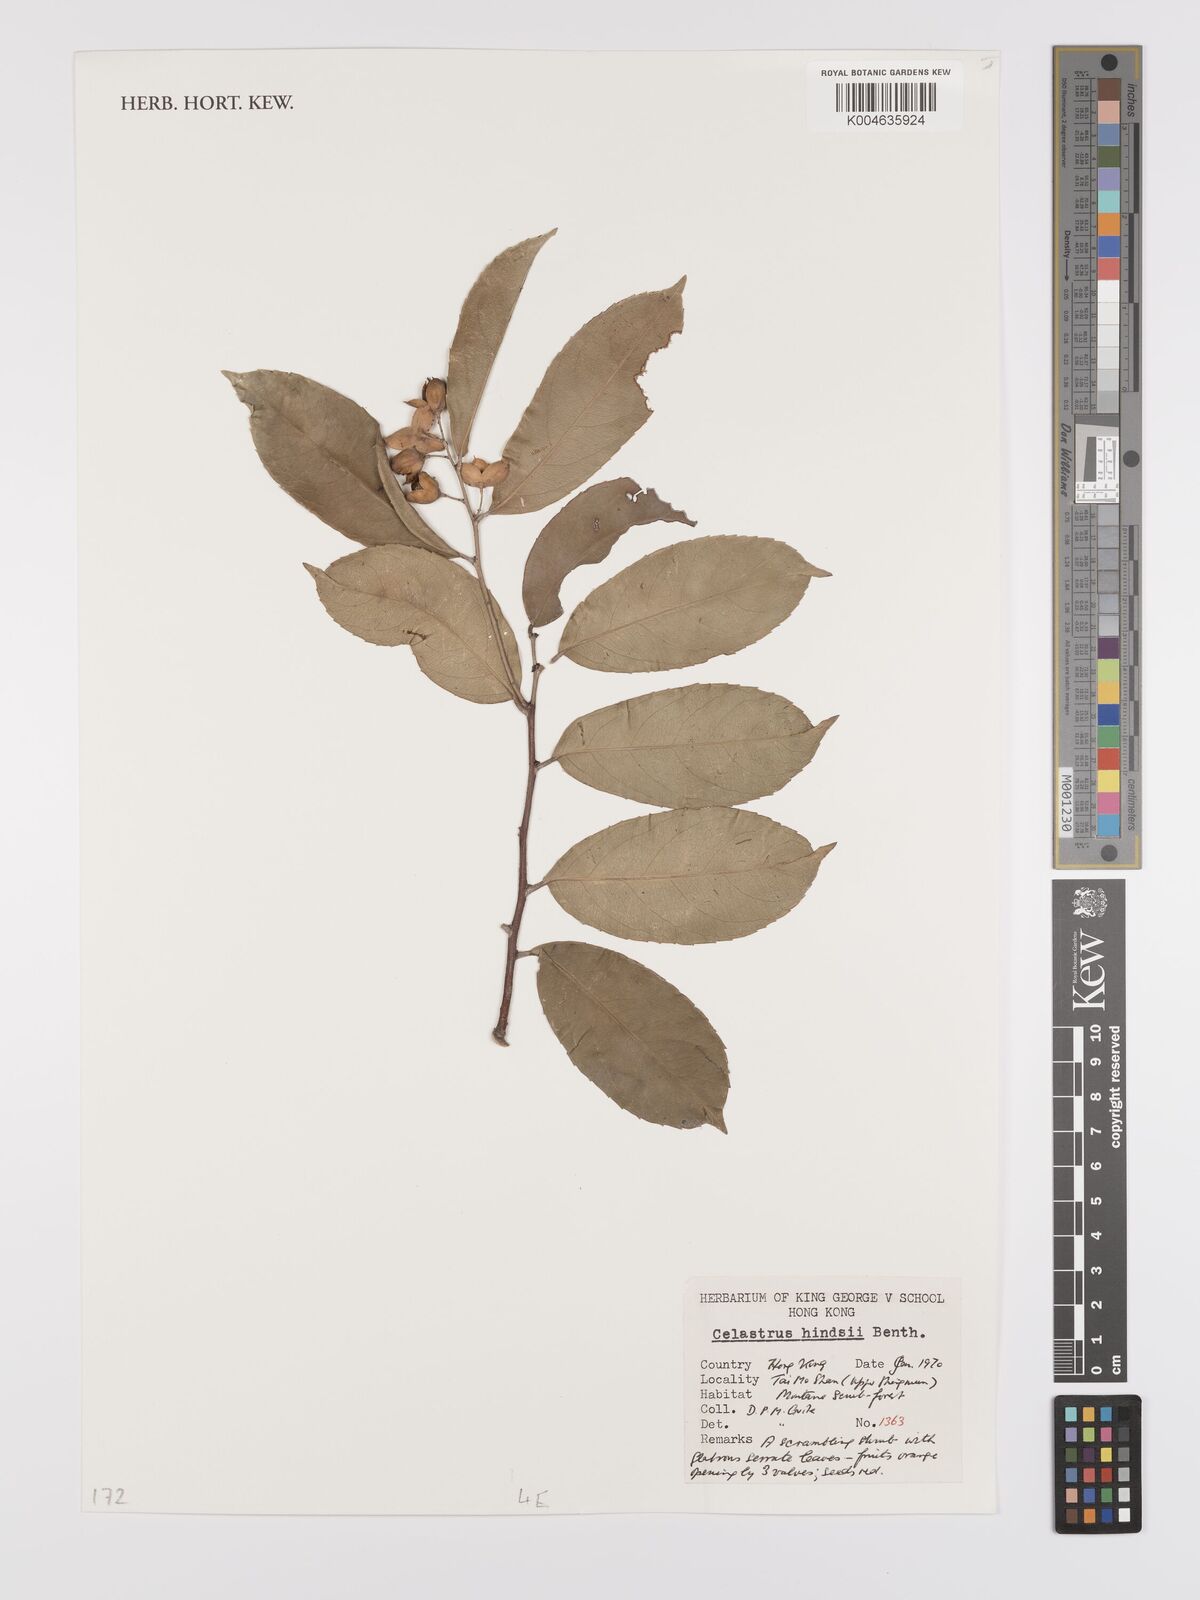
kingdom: Plantae
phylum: Tracheophyta
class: Magnoliopsida
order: Celastrales
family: Celastraceae
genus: Celastrus
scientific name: Celastrus hindsii
